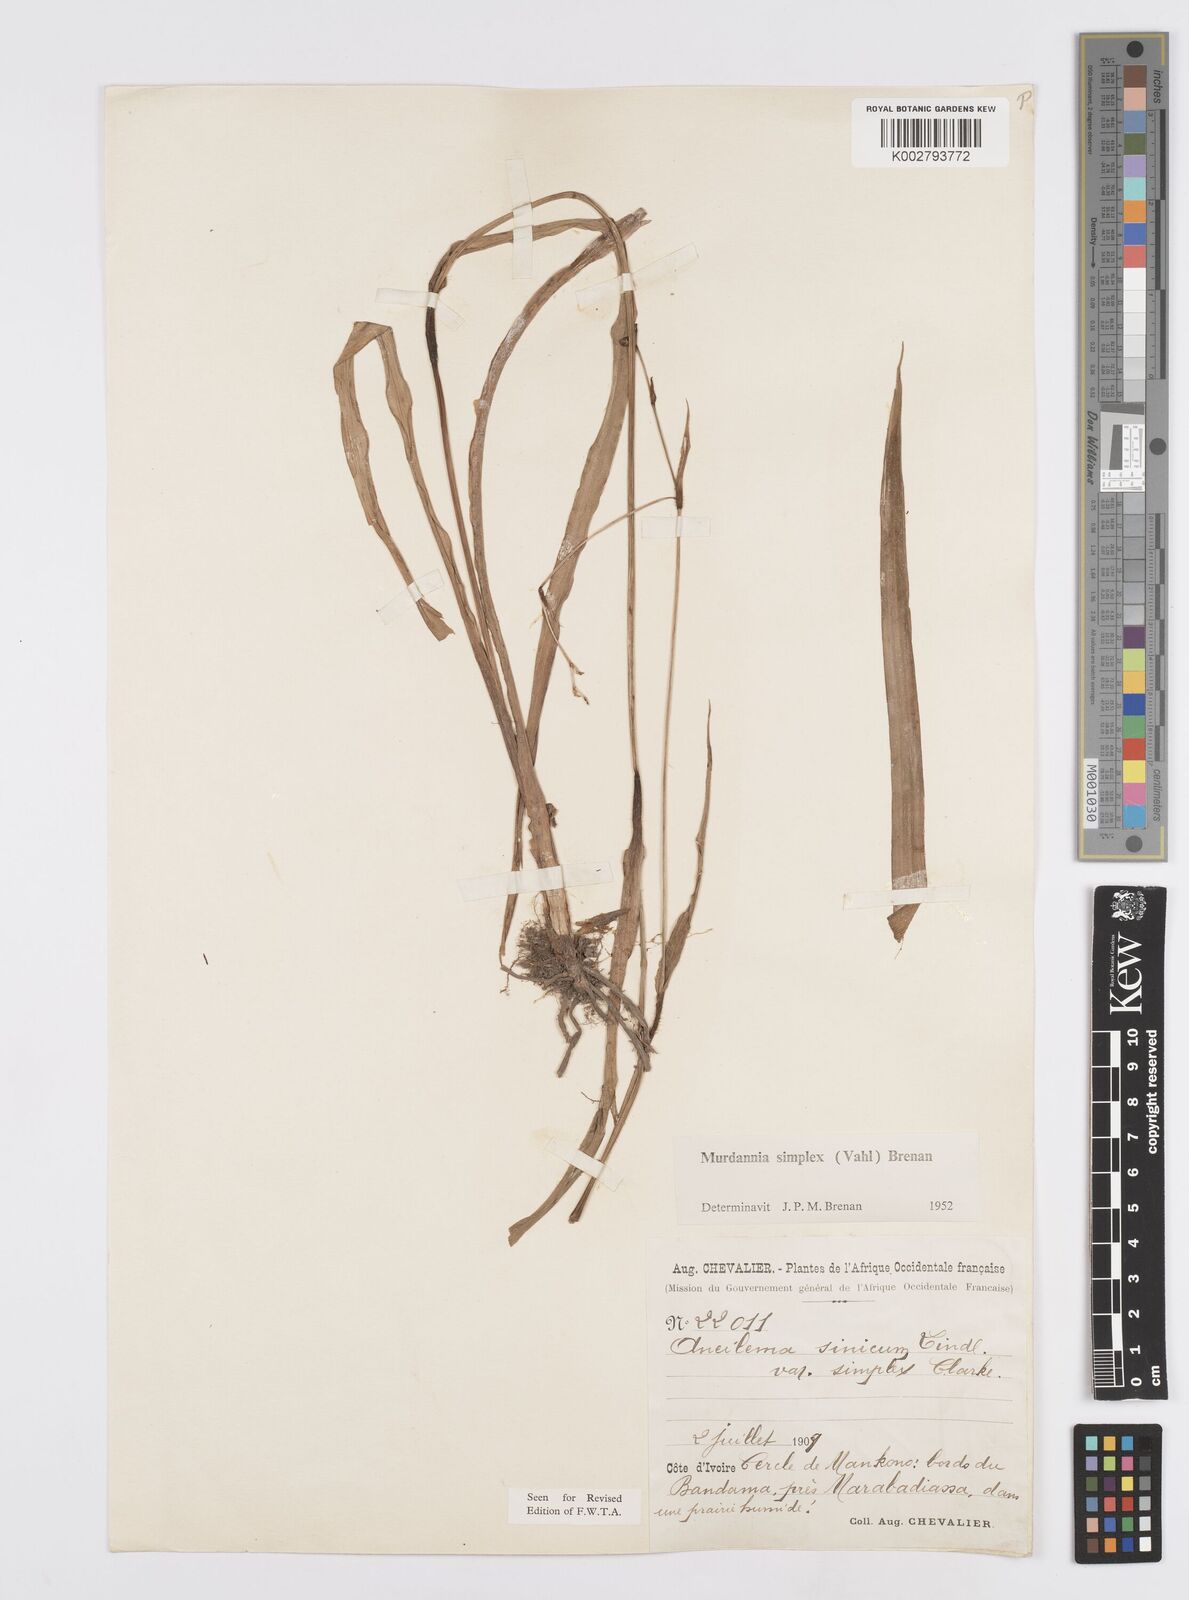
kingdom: Plantae
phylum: Tracheophyta
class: Liliopsida
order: Commelinales
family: Commelinaceae
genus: Murdannia
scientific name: Murdannia simplex
